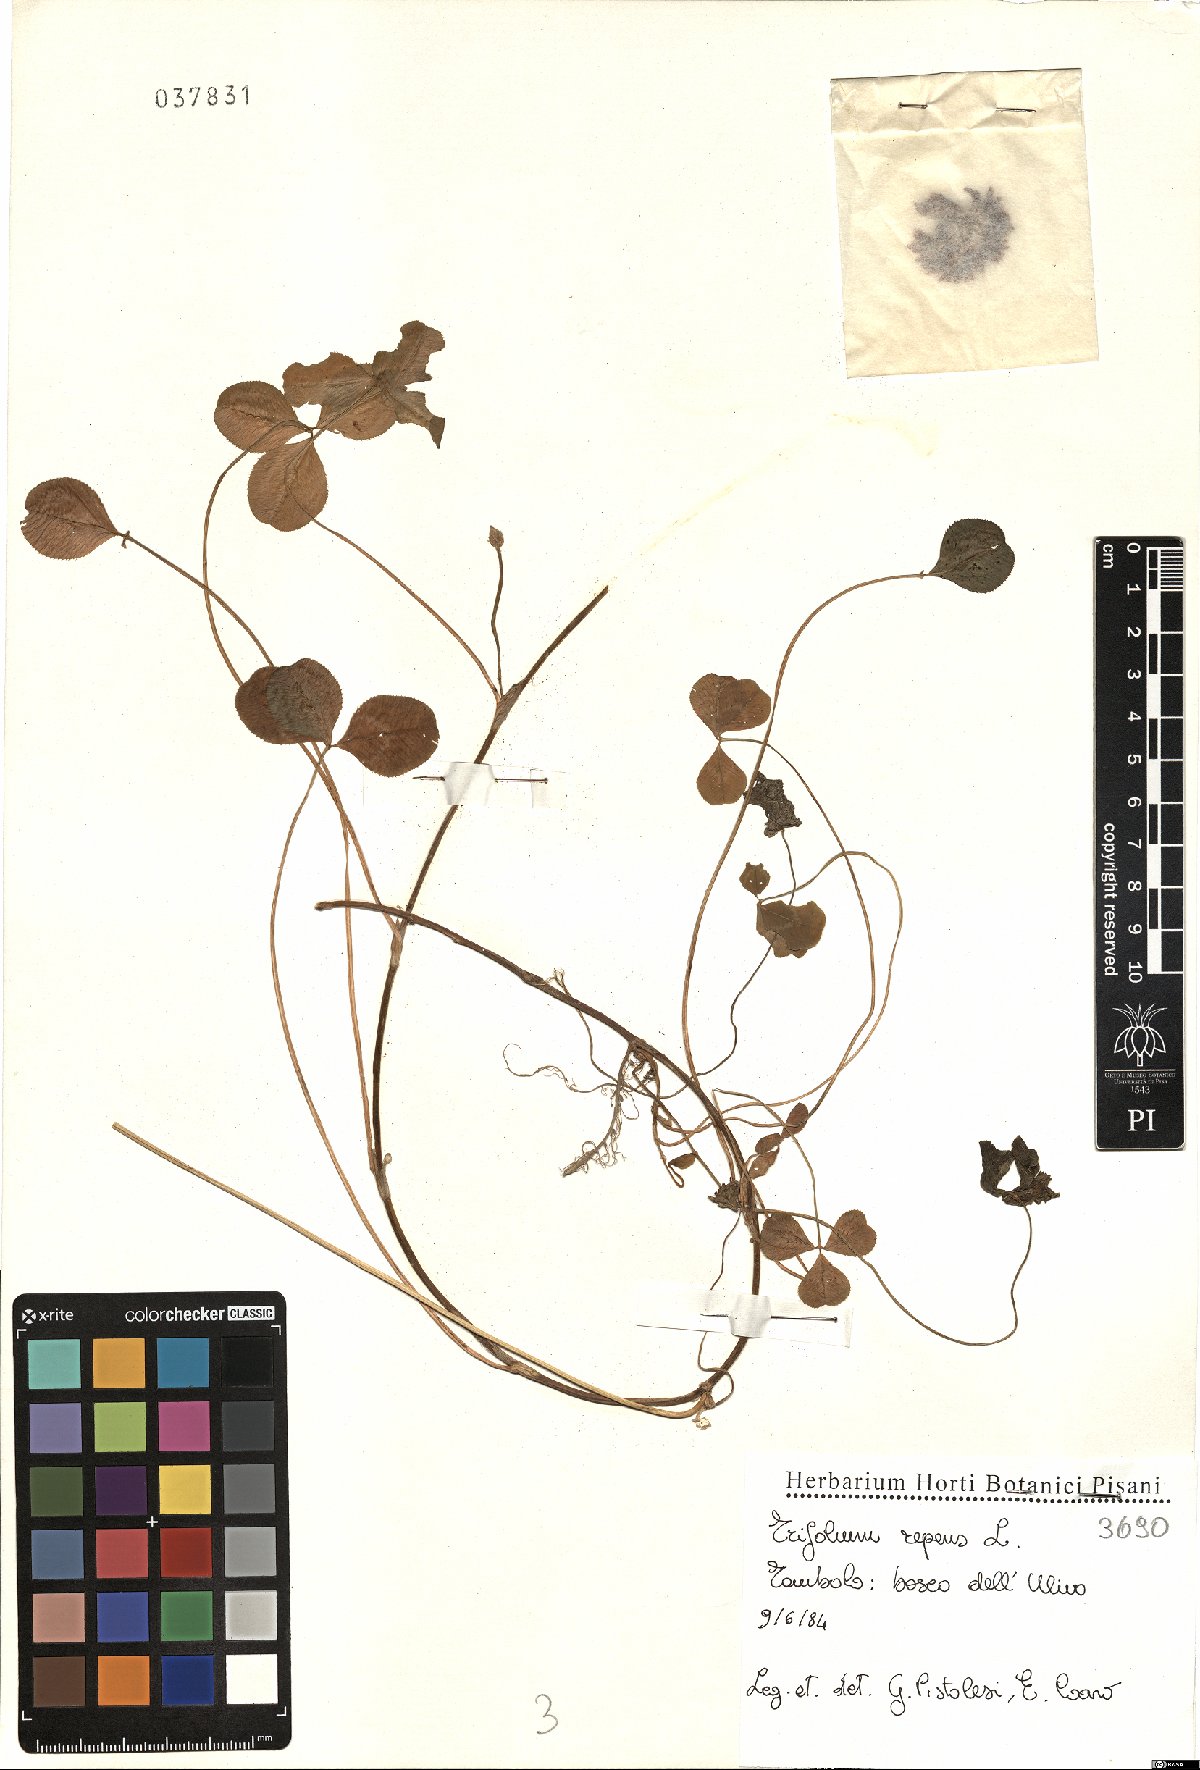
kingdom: Plantae
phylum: Tracheophyta
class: Magnoliopsida
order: Fabales
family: Fabaceae
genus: Trifolium
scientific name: Trifolium repens
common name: White clover
